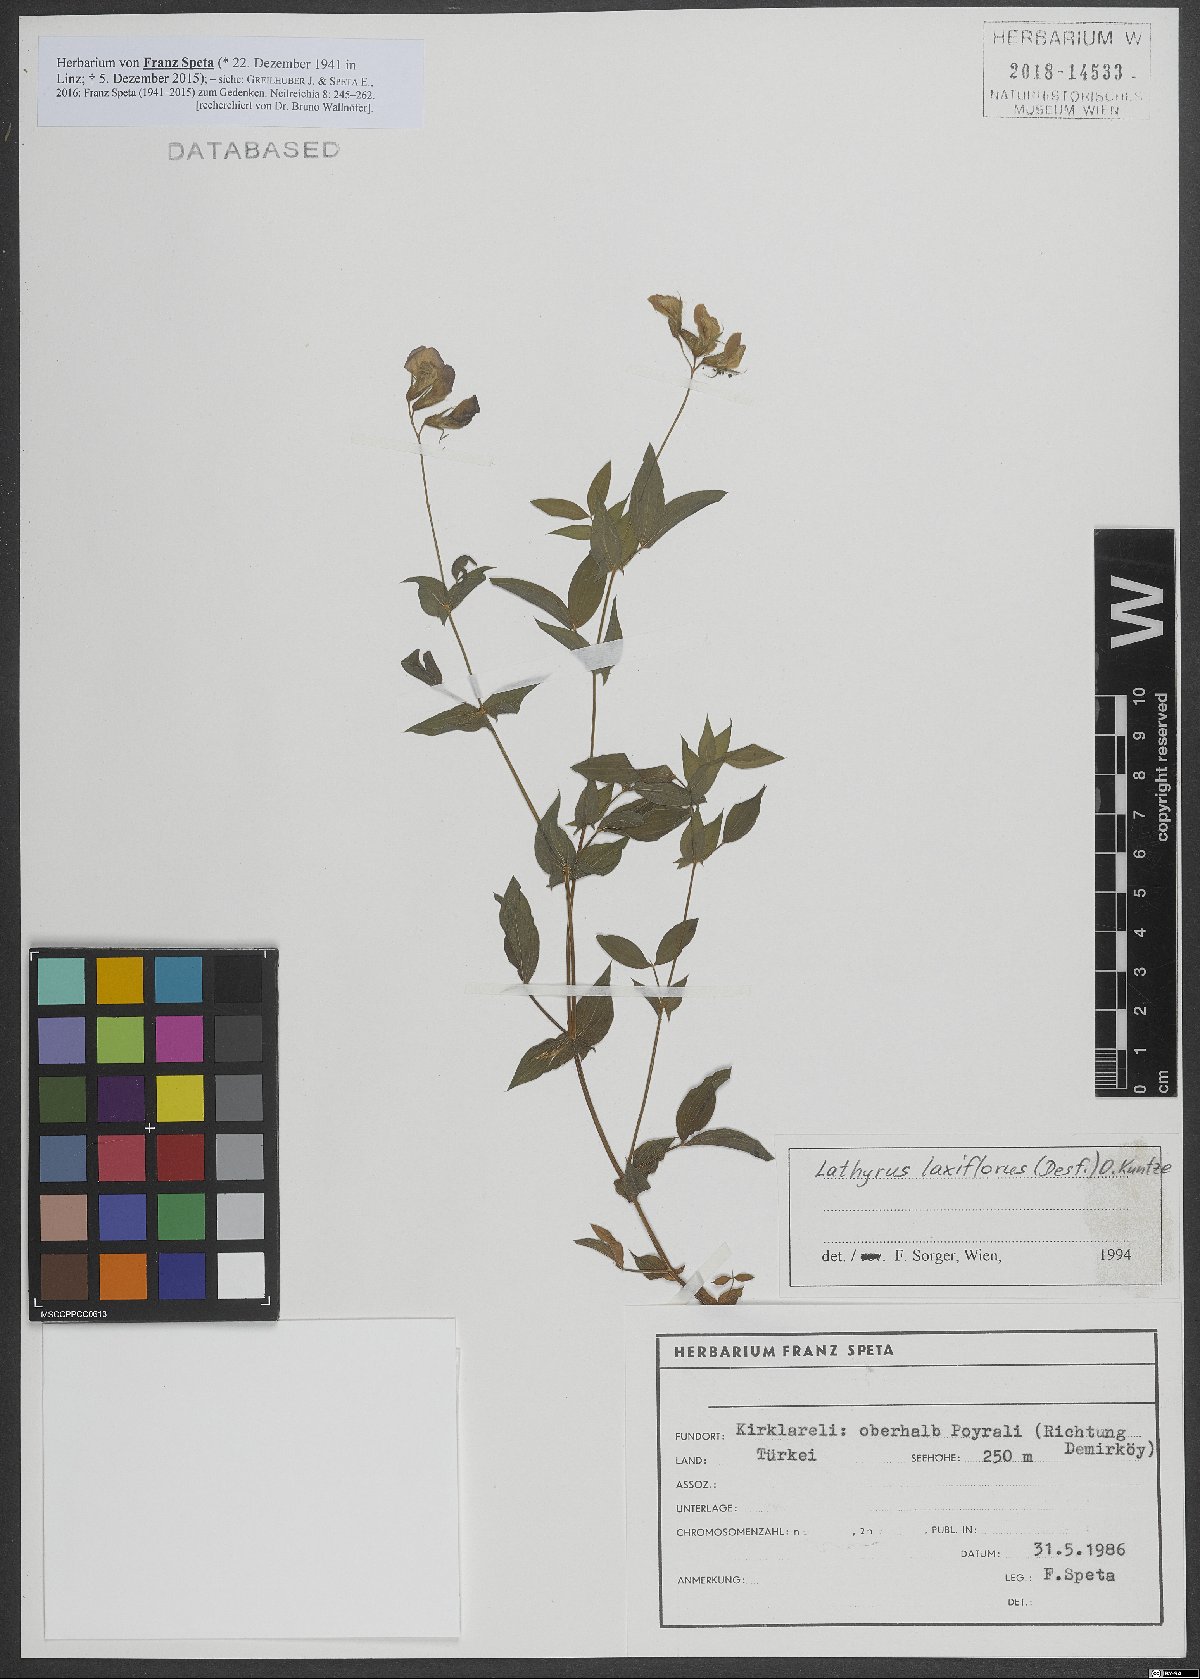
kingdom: Plantae
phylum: Tracheophyta
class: Magnoliopsida
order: Fabales
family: Fabaceae
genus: Lathyrus
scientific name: Lathyrus laxiflorus
